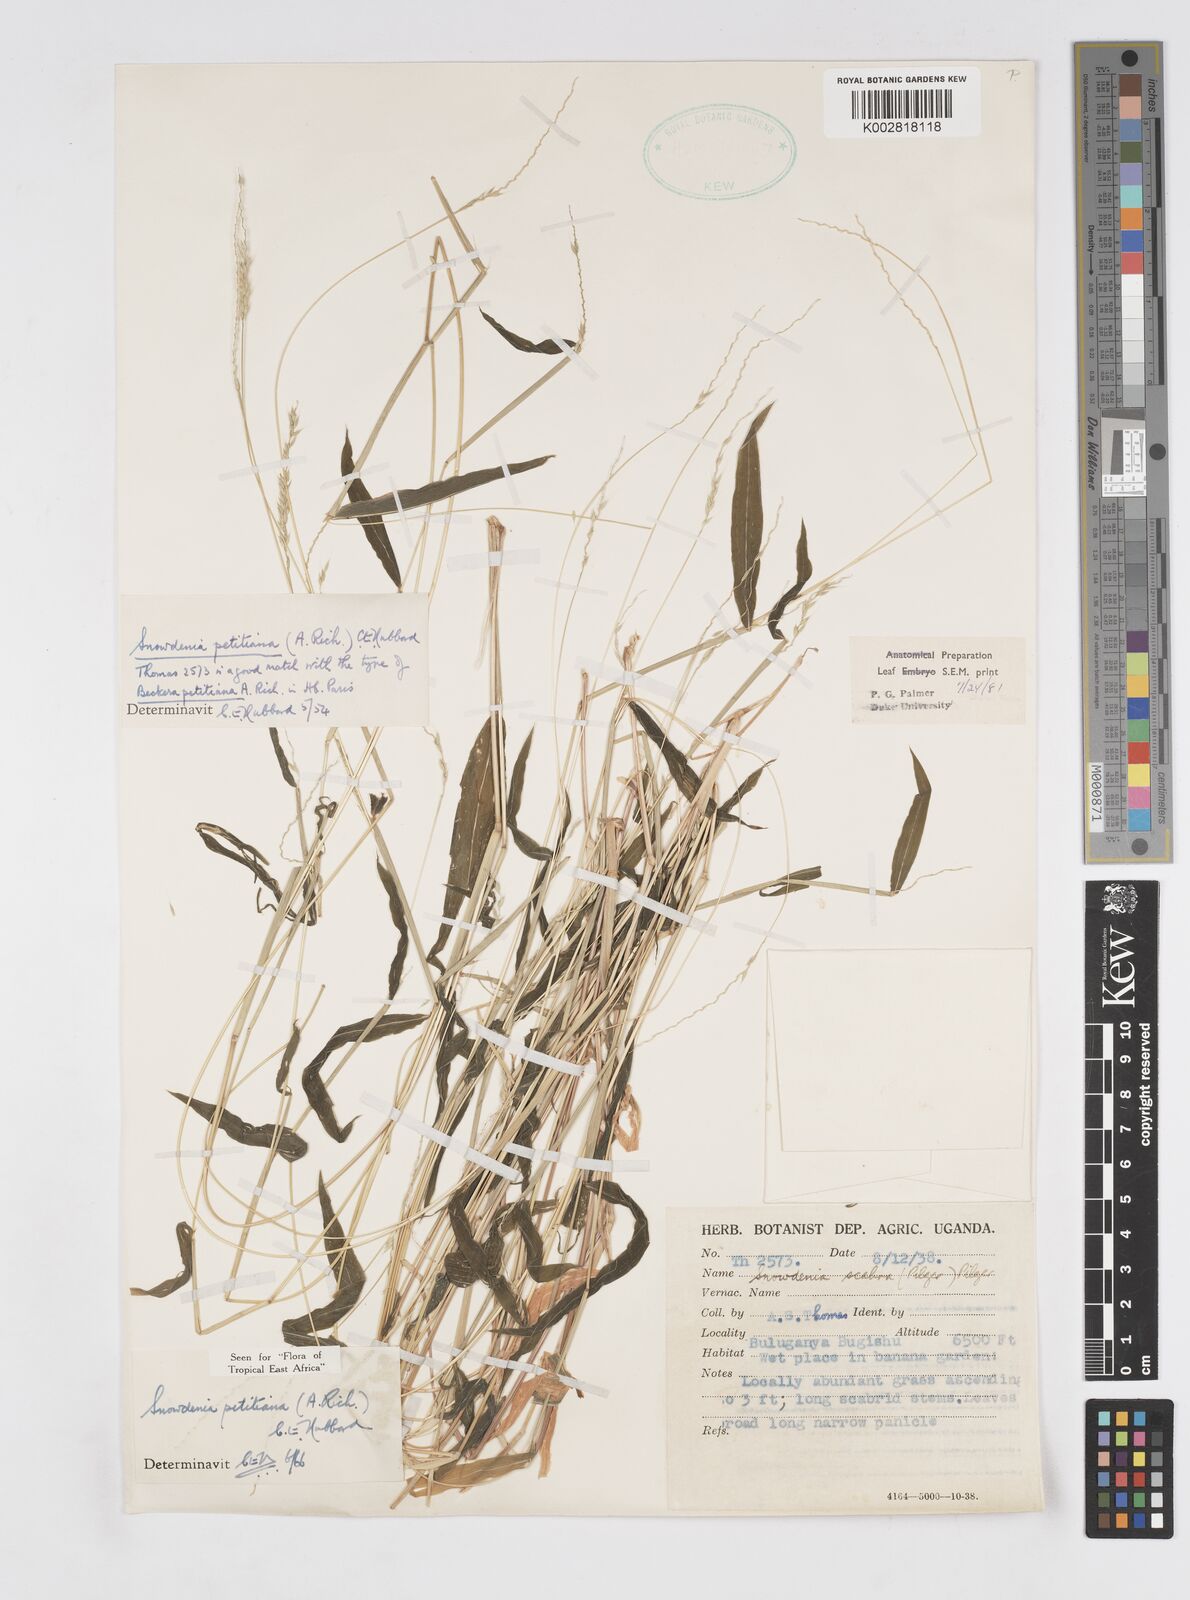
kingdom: Plantae
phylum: Tracheophyta
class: Liliopsida
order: Poales
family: Poaceae
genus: Snowdenia
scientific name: Snowdenia petitiana
